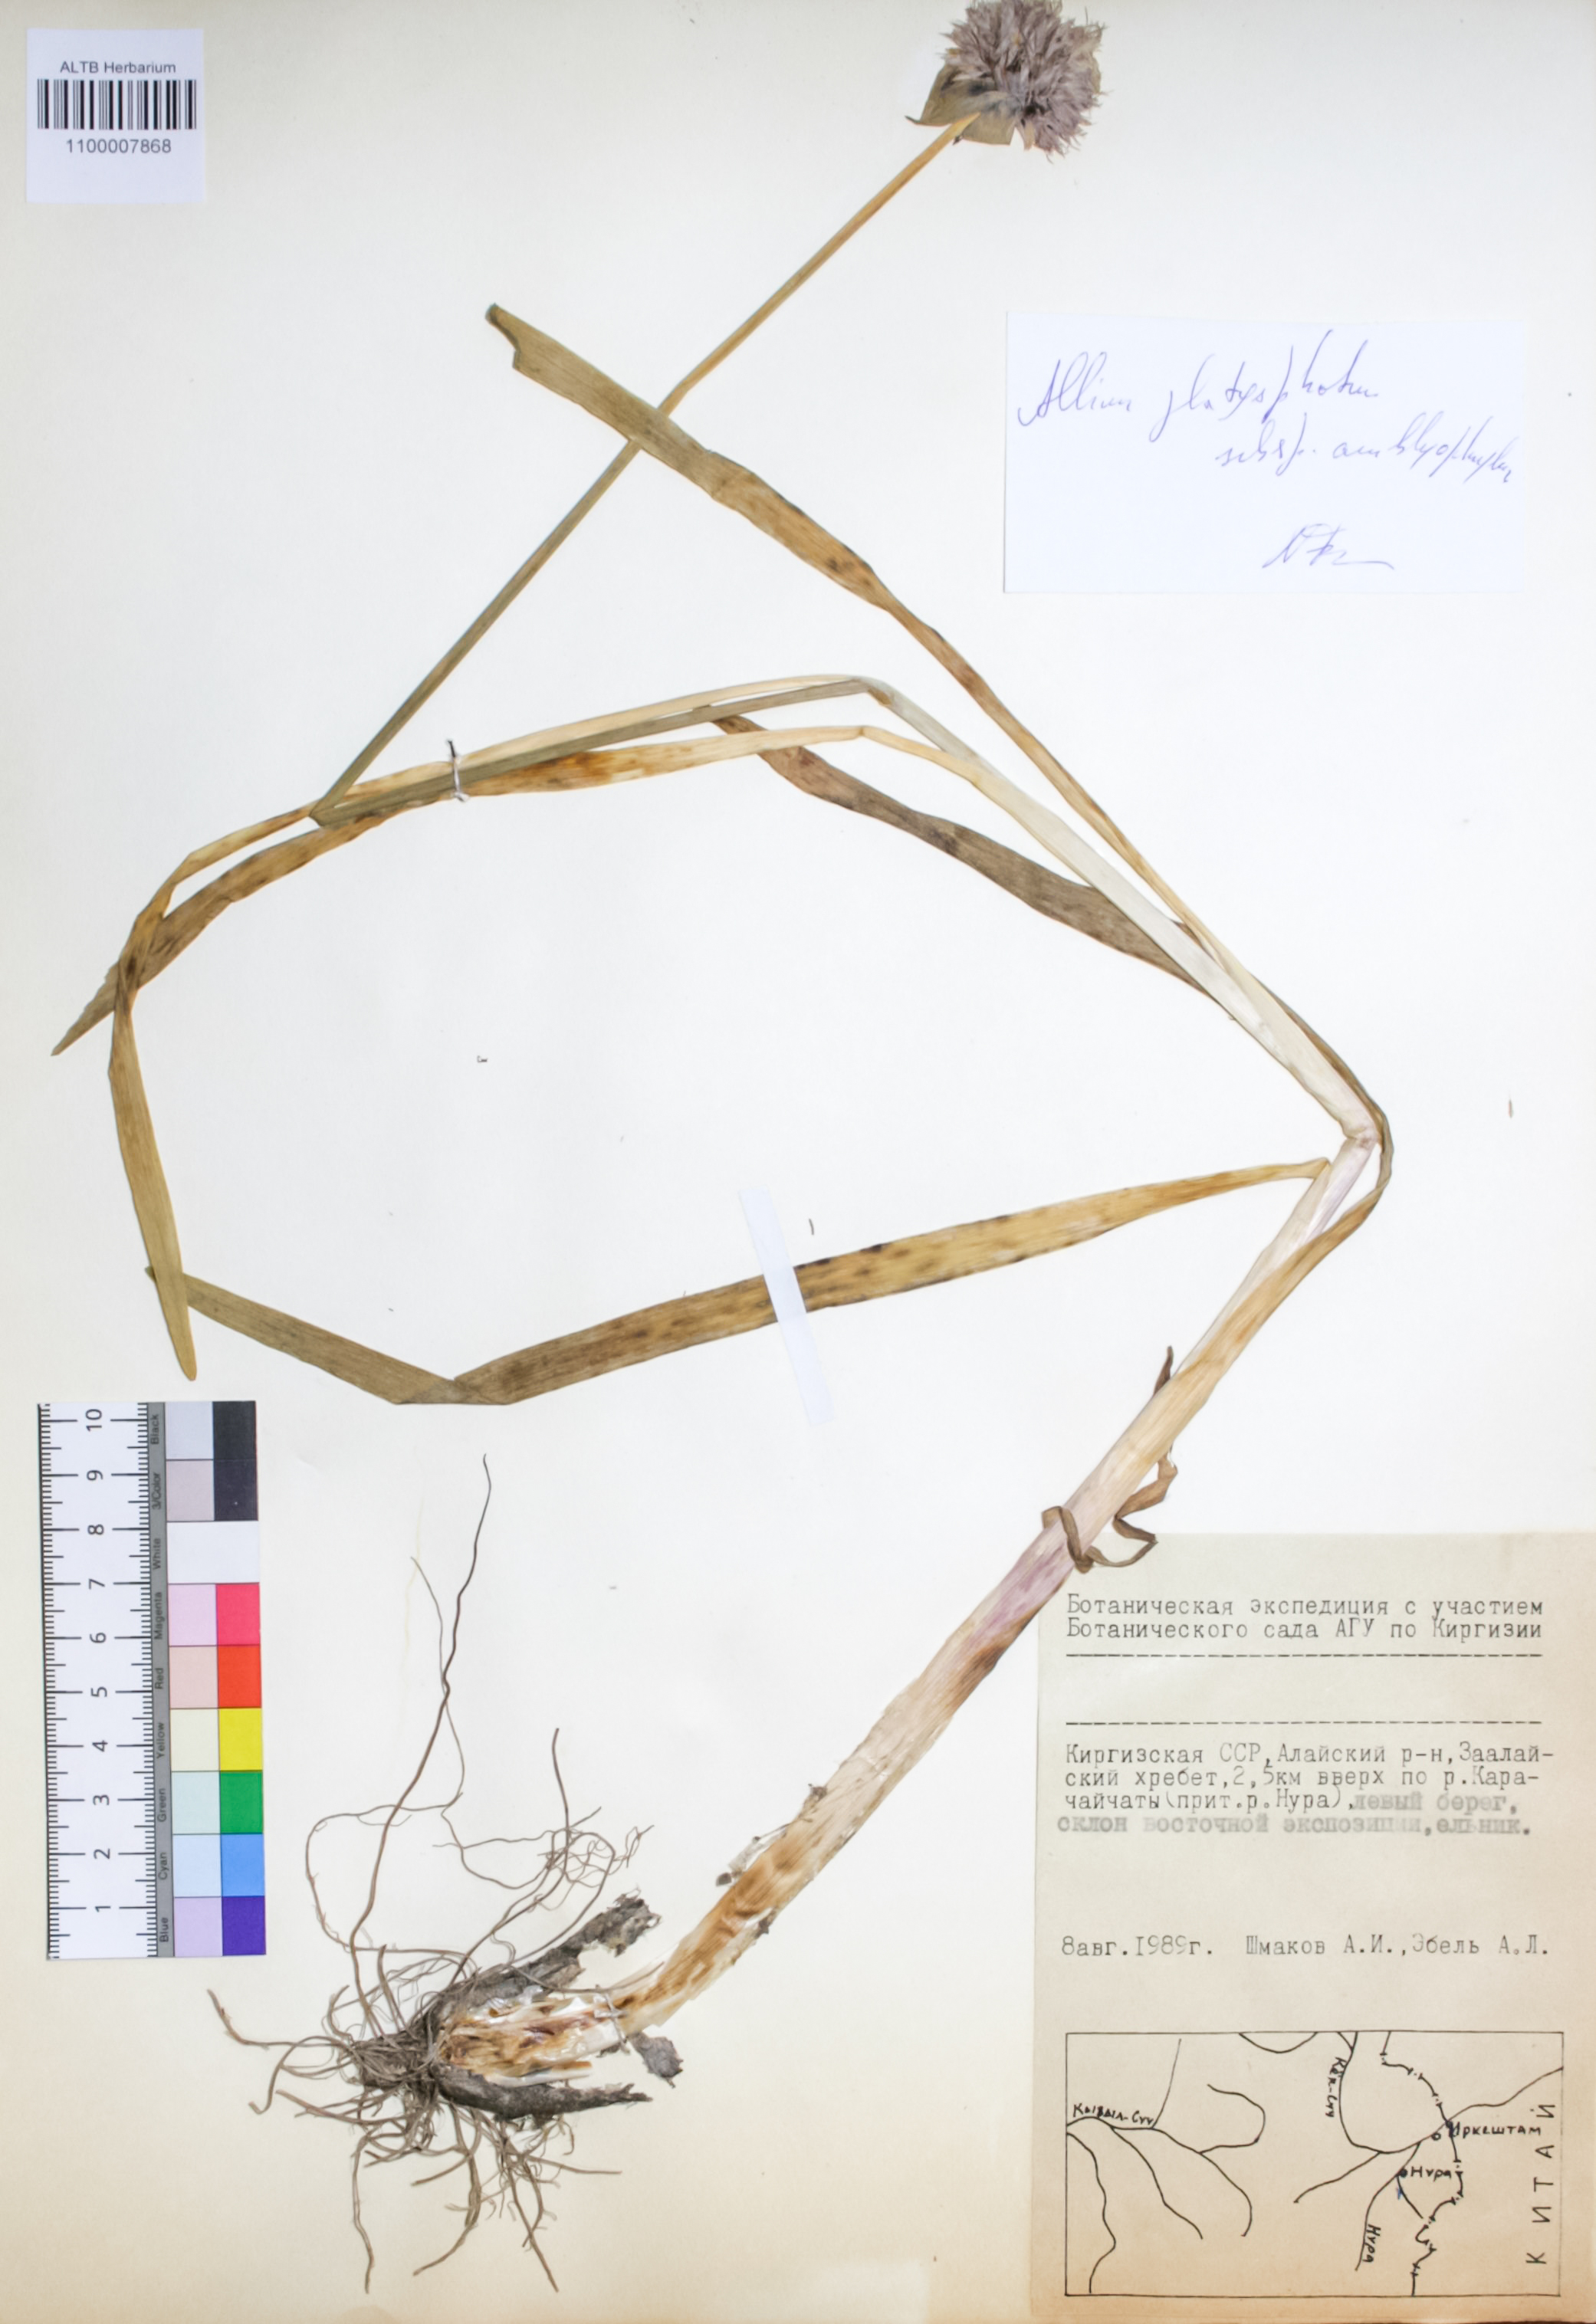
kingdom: Plantae
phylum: Tracheophyta
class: Liliopsida
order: Asparagales
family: Amaryllidaceae
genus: Allium
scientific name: Allium platyspathum
